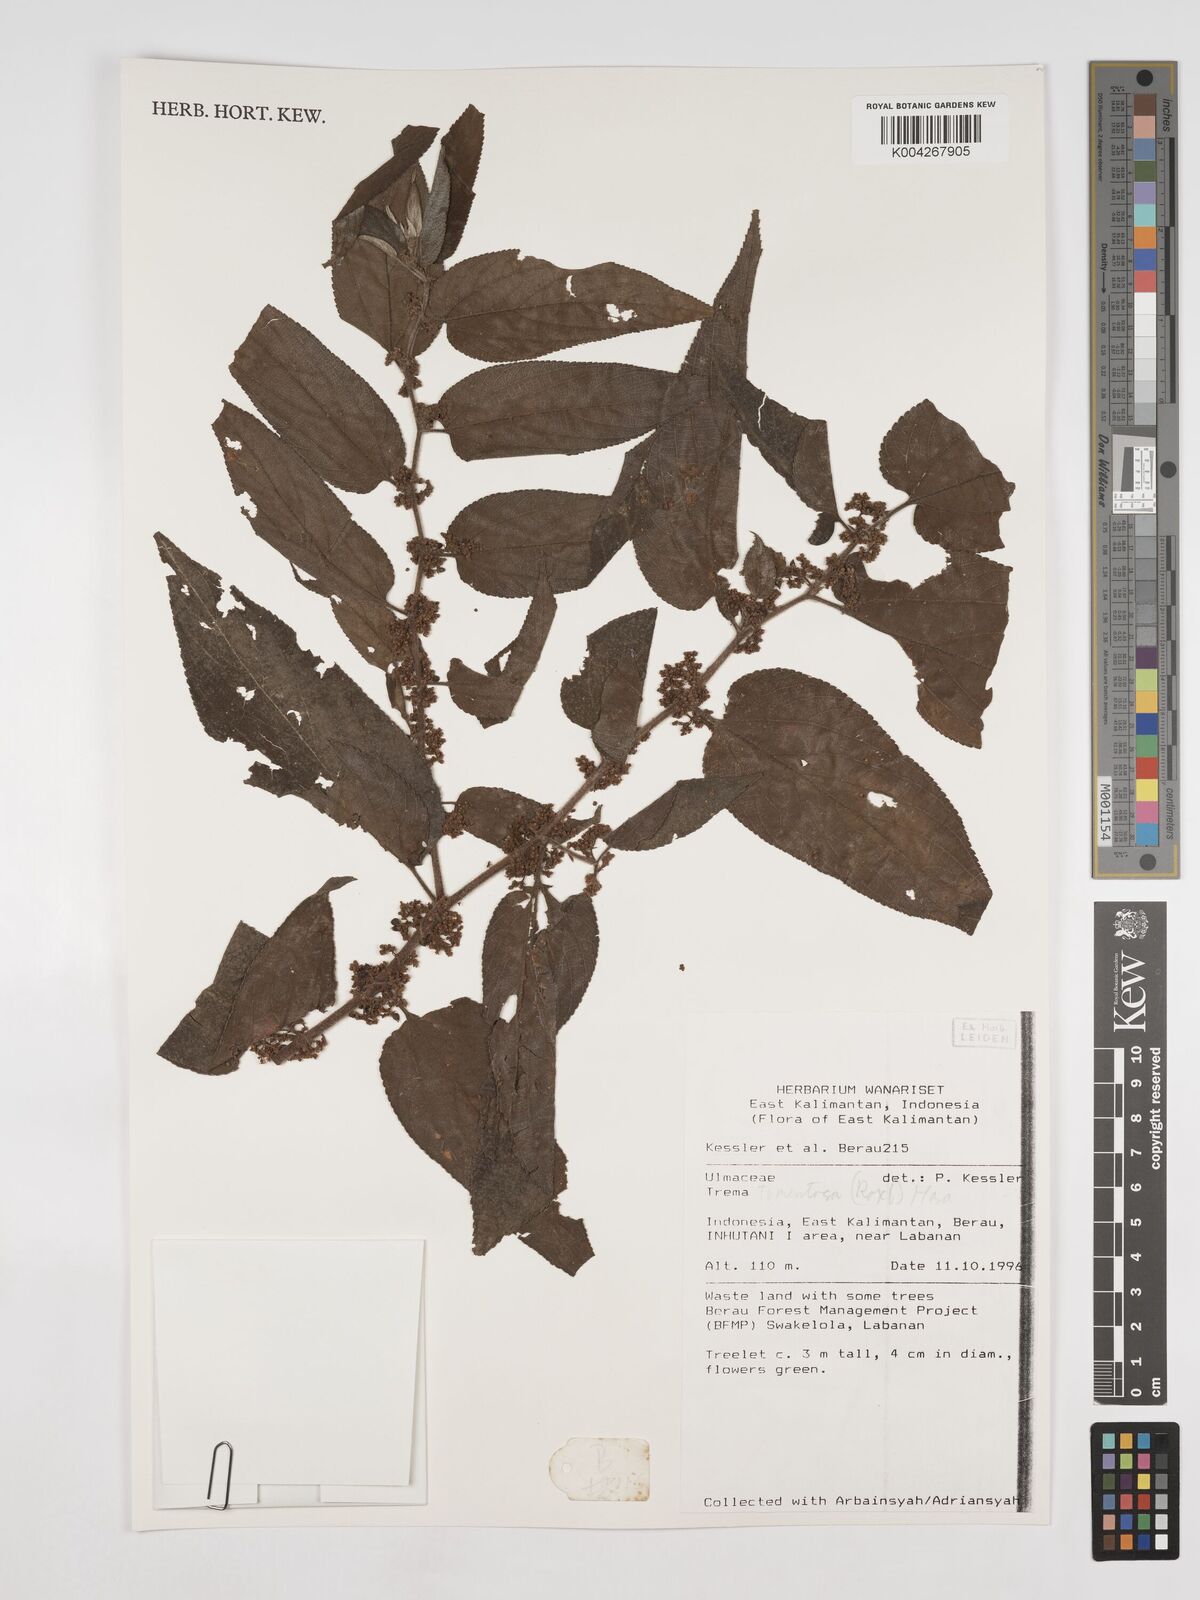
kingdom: Plantae
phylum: Tracheophyta
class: Magnoliopsida
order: Rosales
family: Cannabaceae
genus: Trema
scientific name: Trema tomentosum
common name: Peach-leaf-poisonbush
